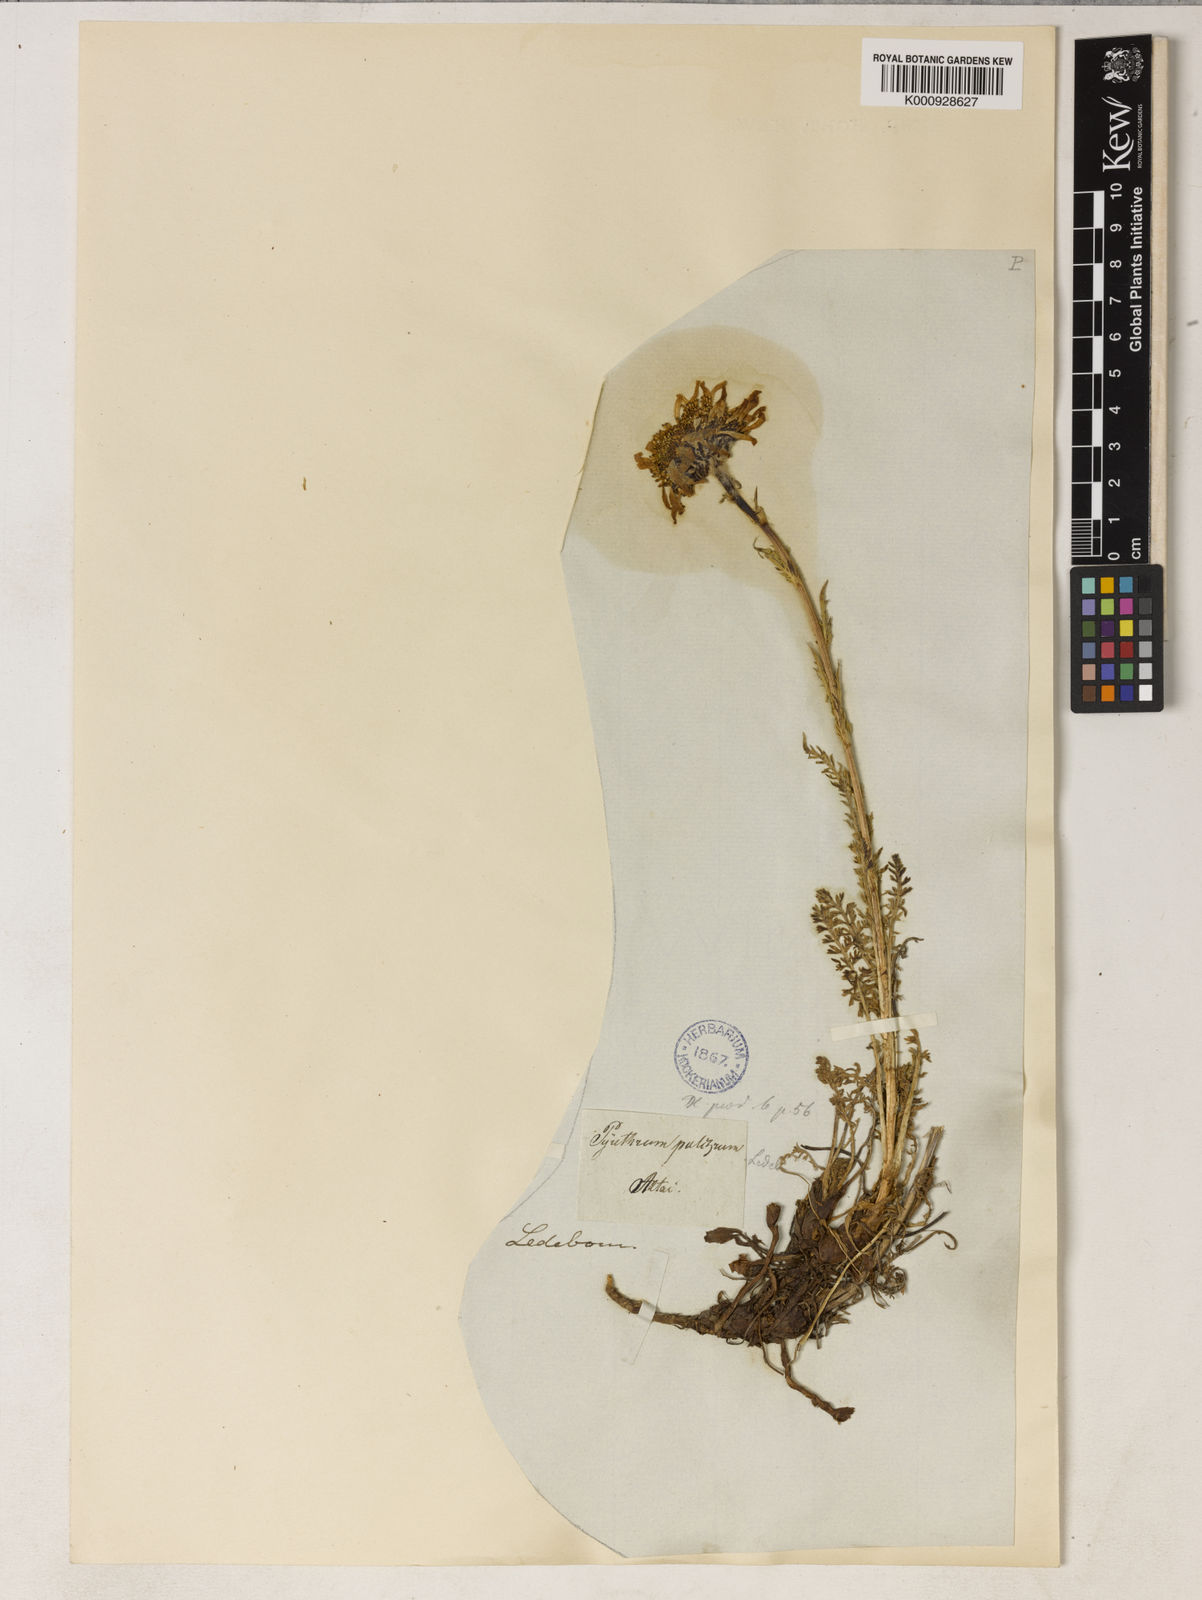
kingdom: Plantae
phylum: Tracheophyta
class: Magnoliopsida
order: Asterales
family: Asteraceae
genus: Tanacetum
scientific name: Tanacetum pulchrum
